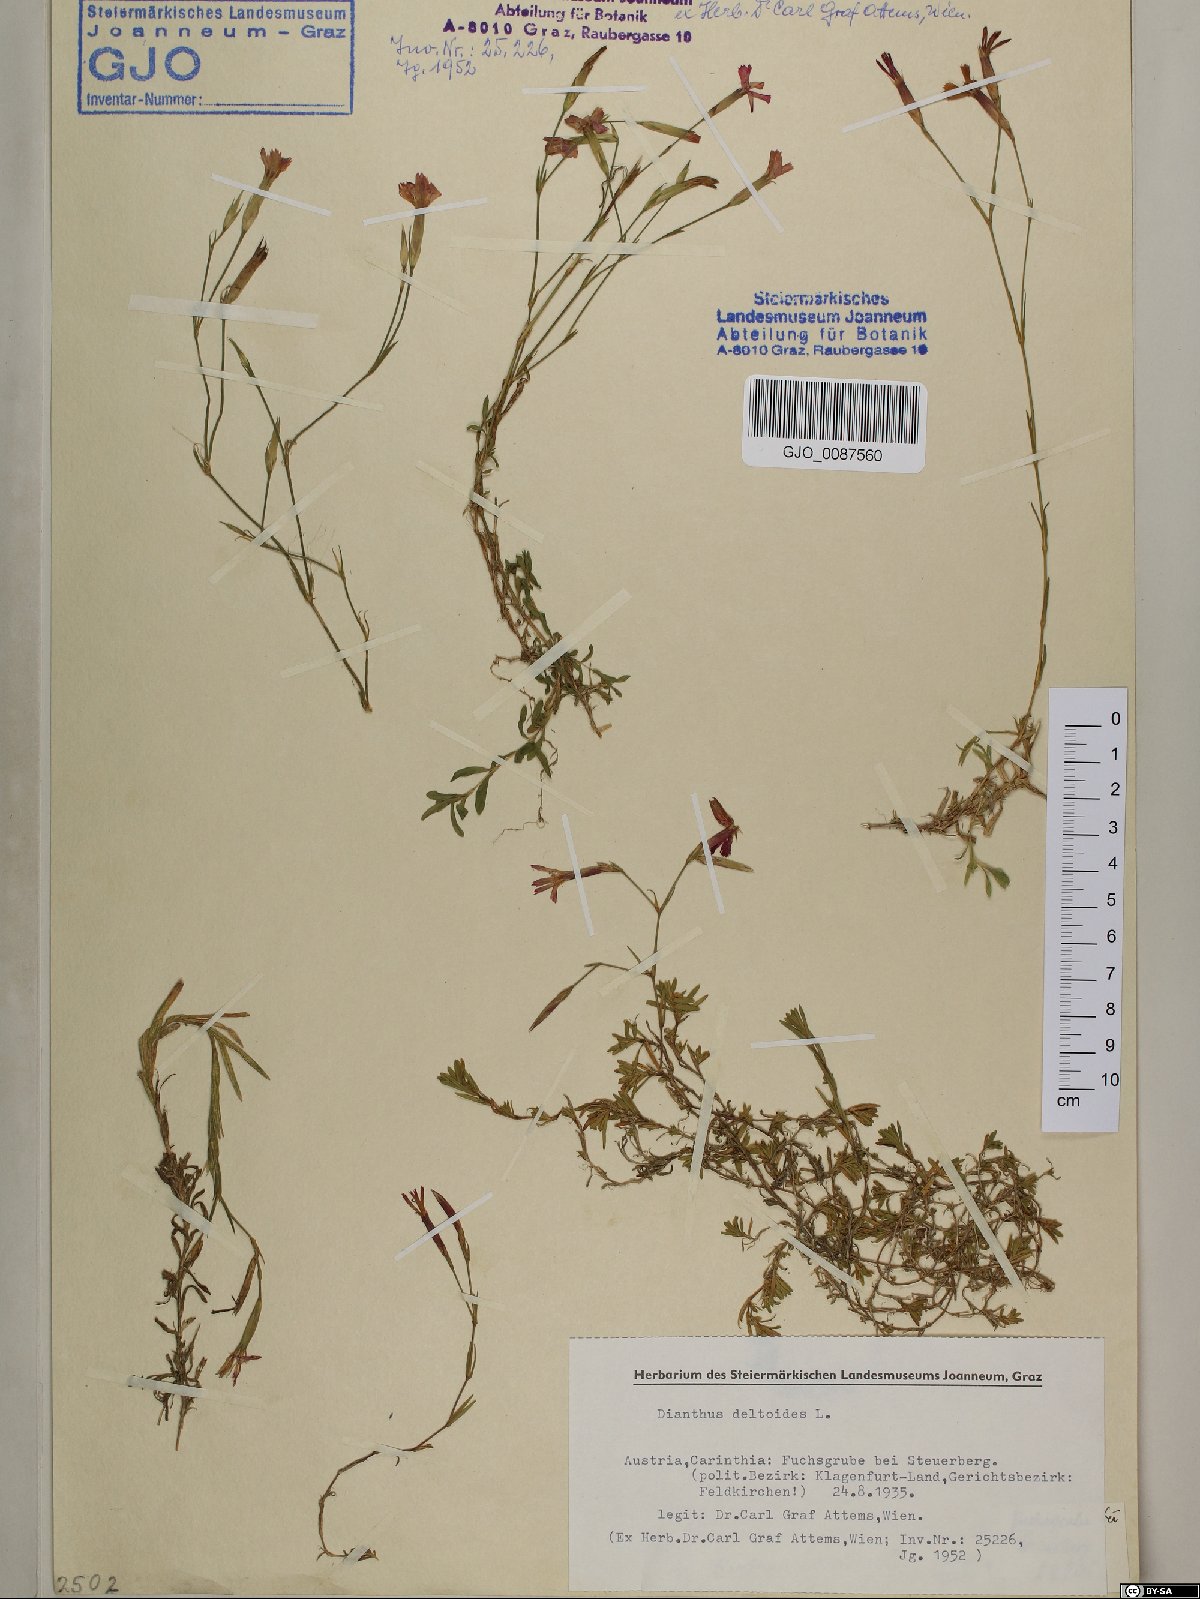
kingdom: Plantae
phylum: Tracheophyta
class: Magnoliopsida
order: Caryophyllales
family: Caryophyllaceae
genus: Dianthus
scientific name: Dianthus deltoides
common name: Maiden pink
